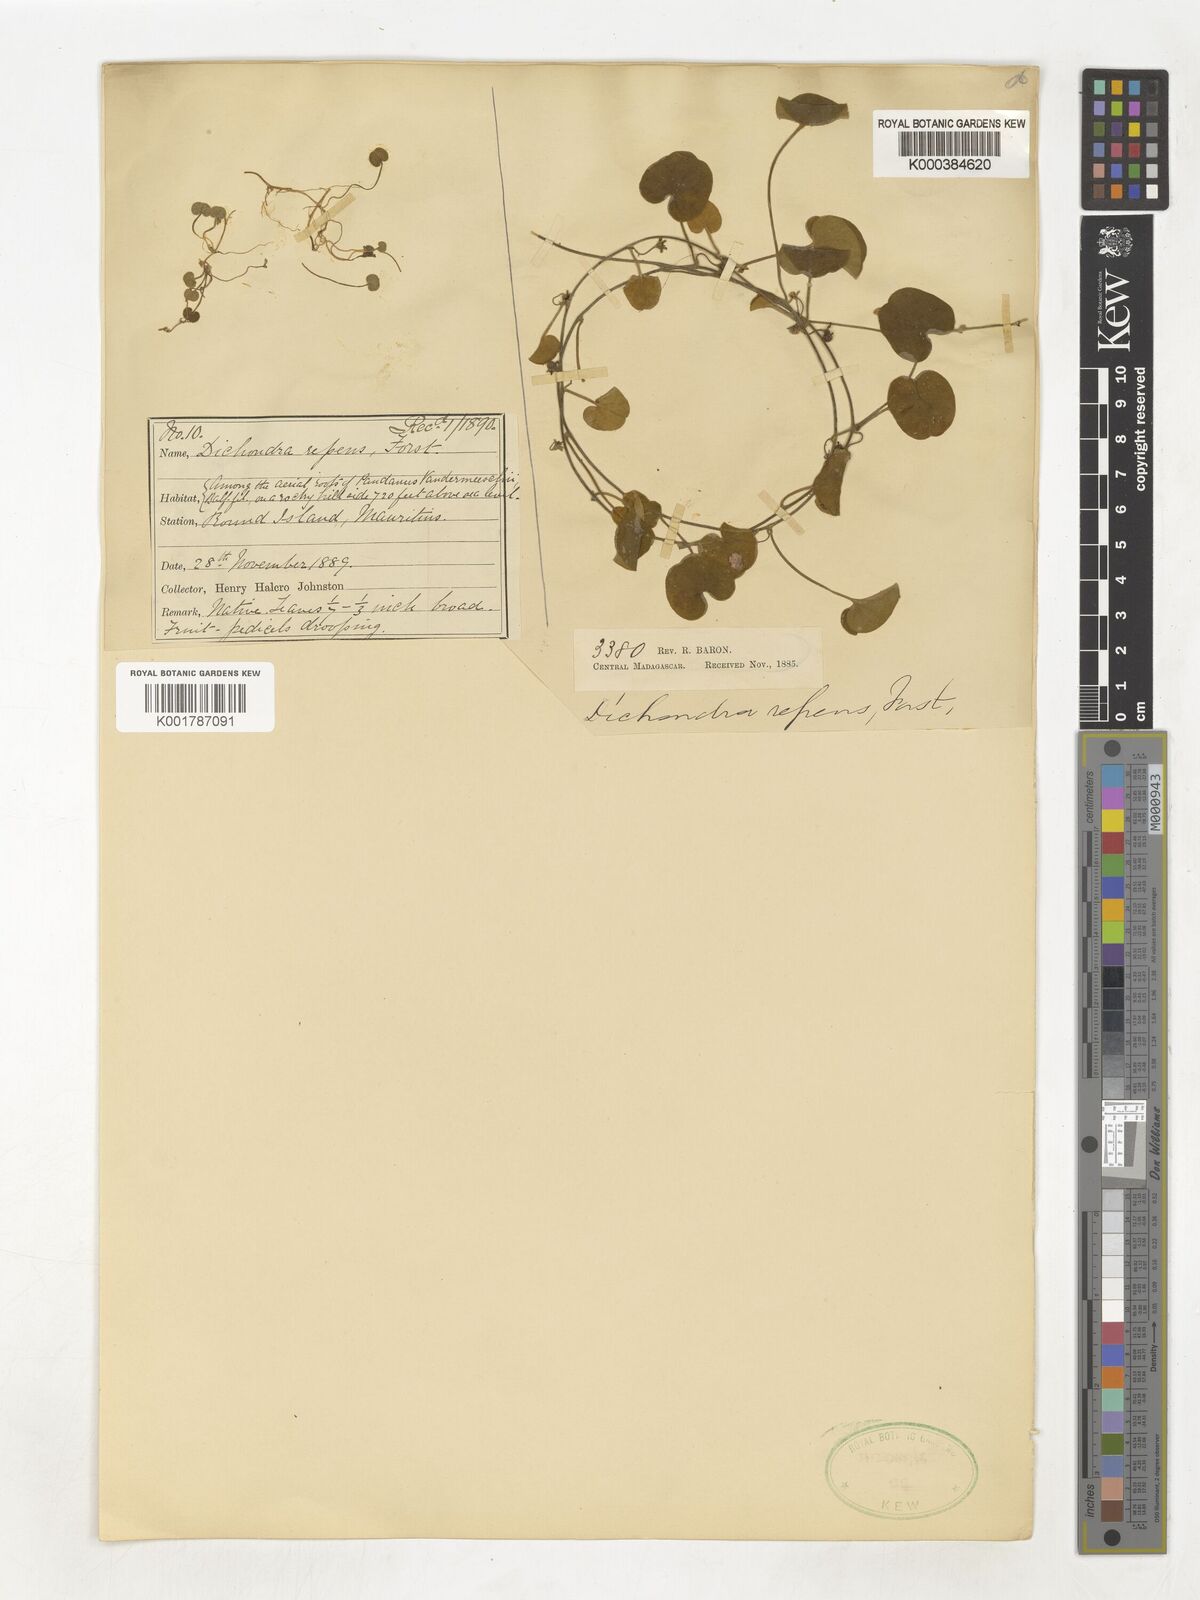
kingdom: Plantae
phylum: Tracheophyta
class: Magnoliopsida
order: Solanales
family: Convolvulaceae
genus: Dichondra
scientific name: Dichondra repens
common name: Kidneyweed
